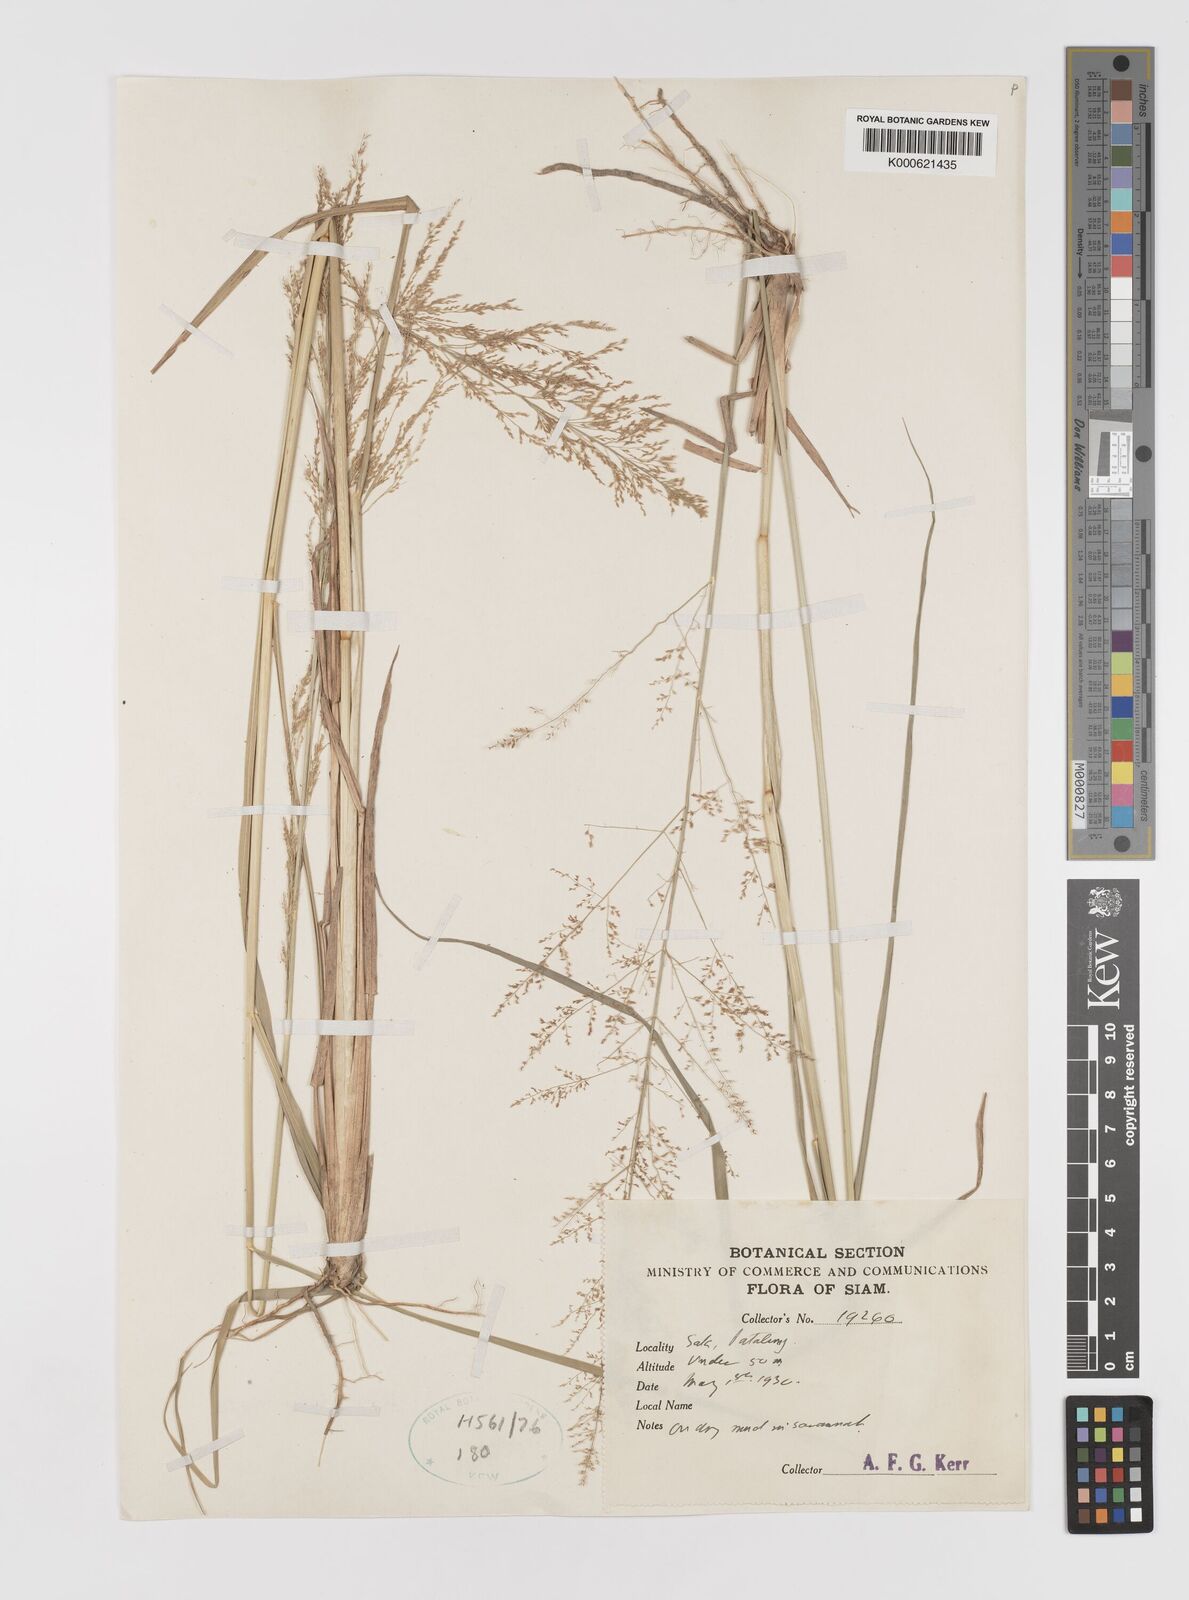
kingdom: Plantae
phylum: Tracheophyta
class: Liliopsida
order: Poales
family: Poaceae
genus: Eragrostis
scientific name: Eragrostis japonica
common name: Pond lovegrass
